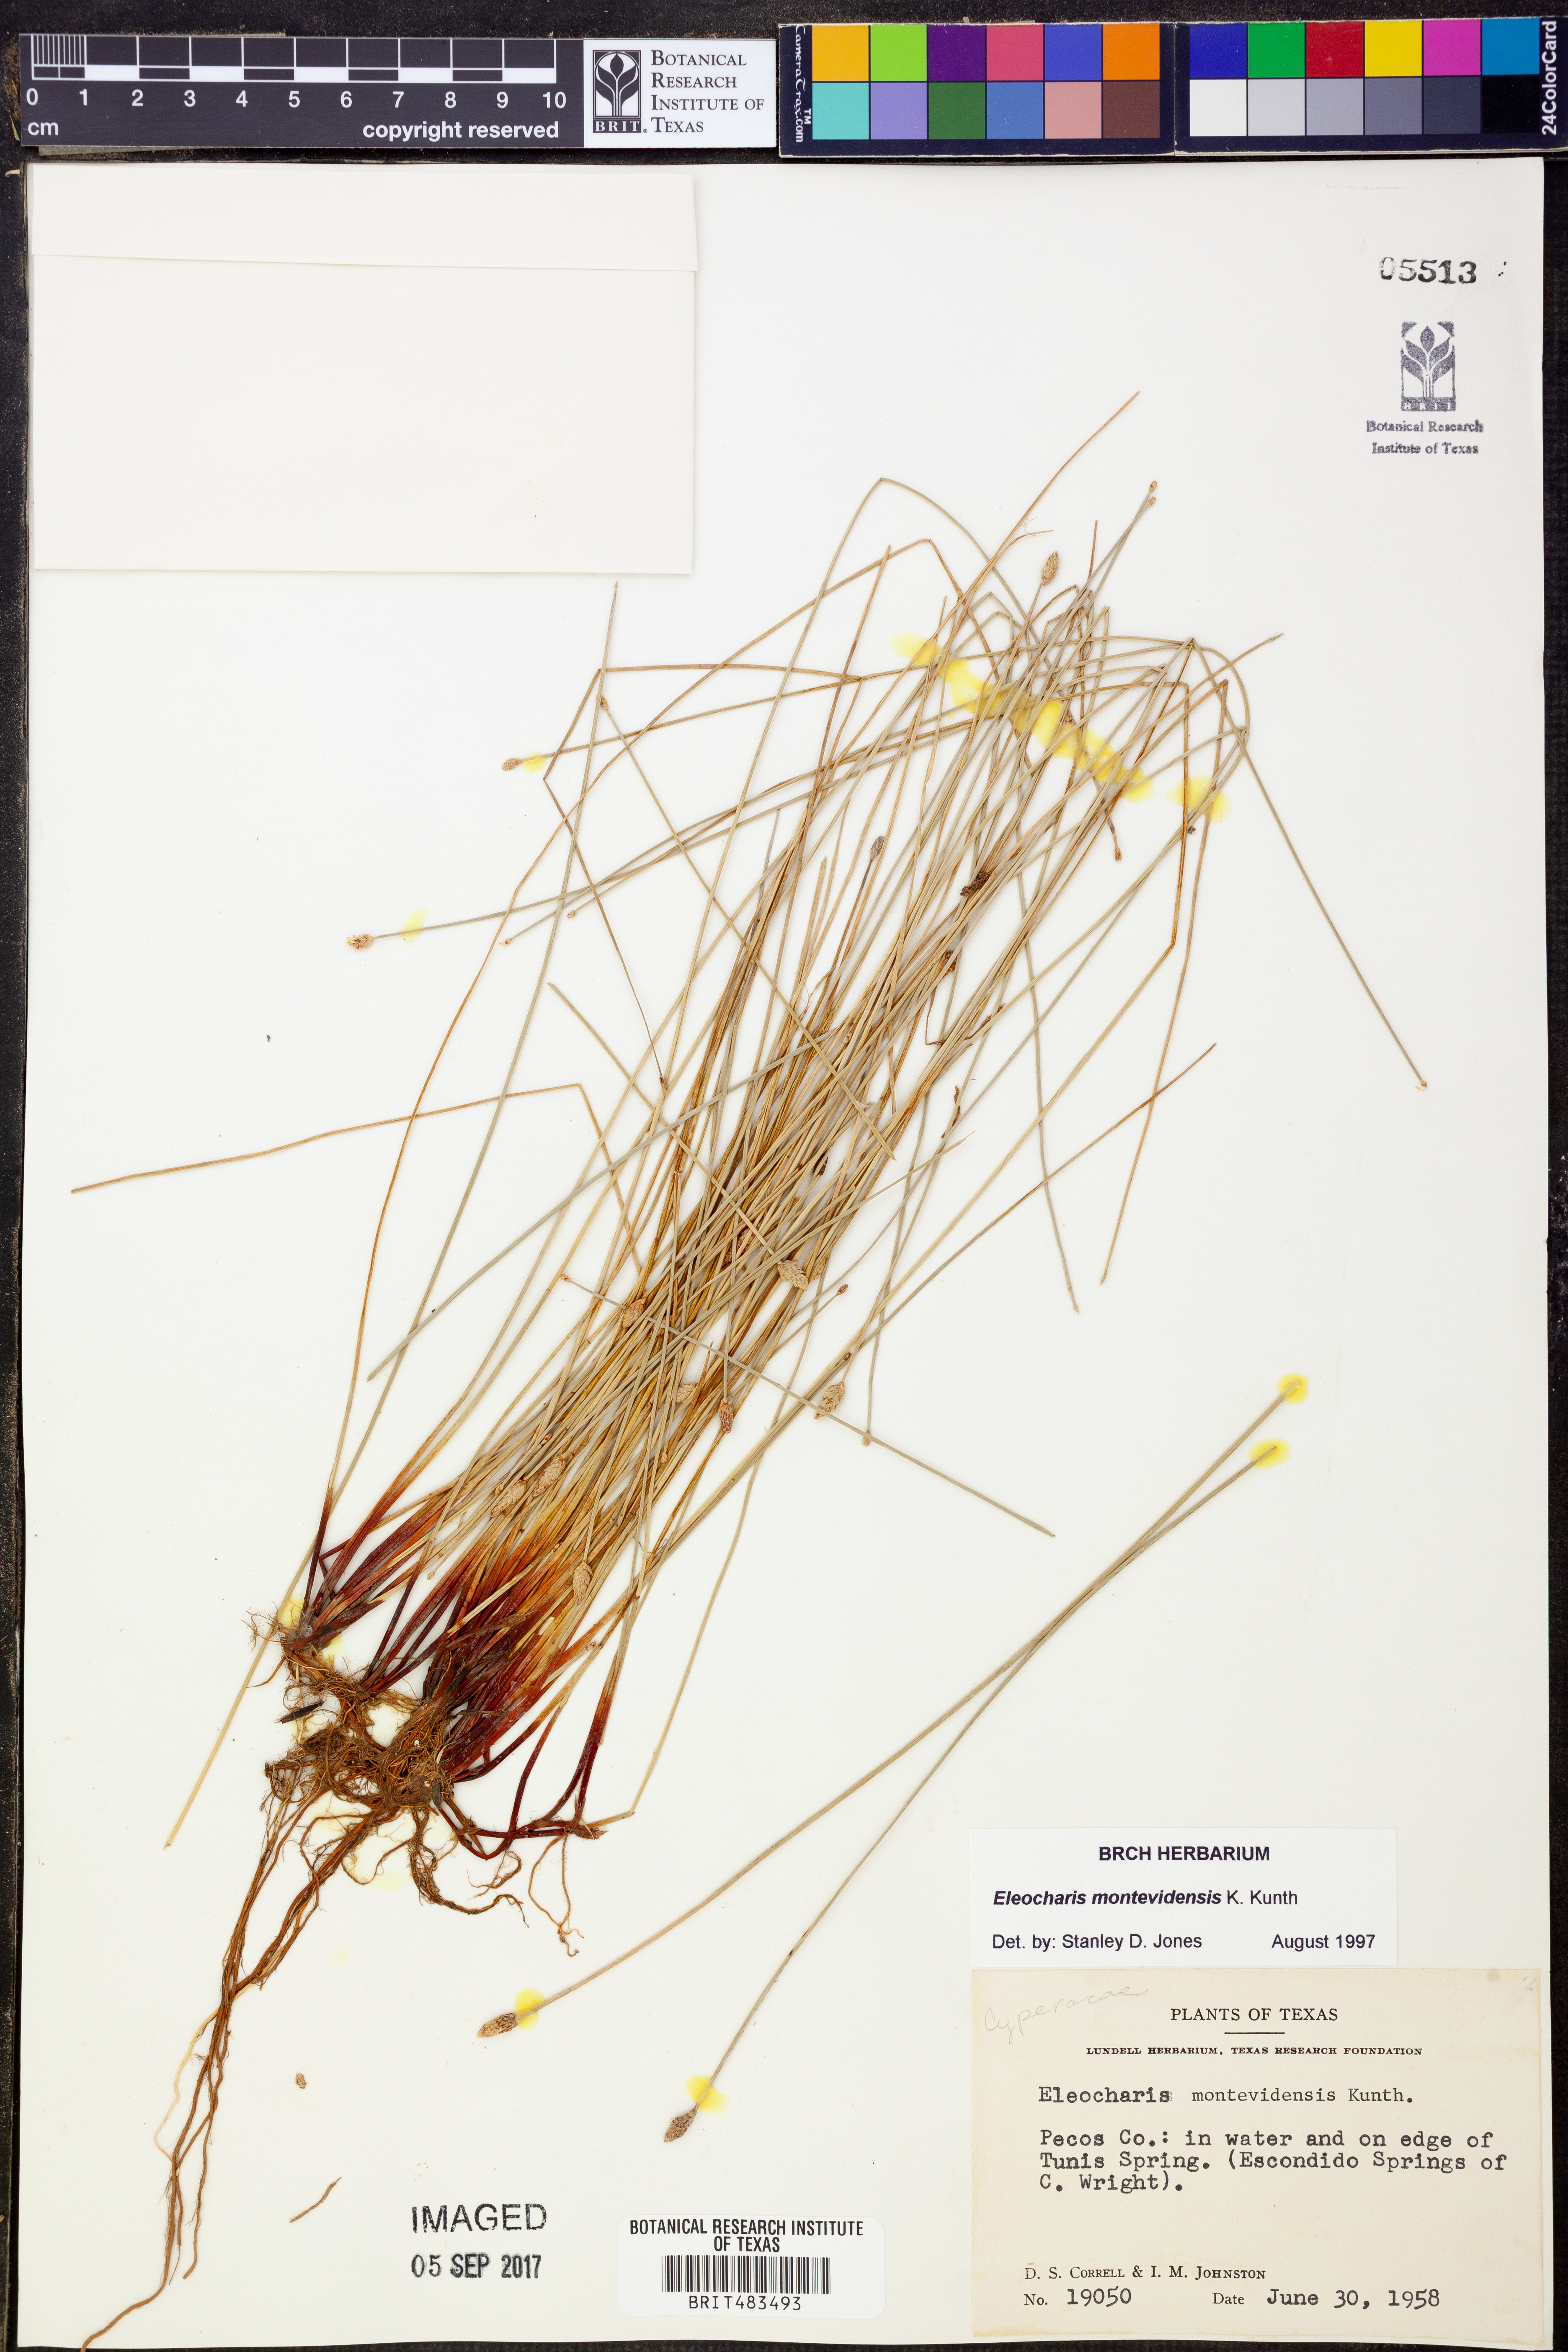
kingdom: Plantae
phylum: Tracheophyta
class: Liliopsida
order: Poales
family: Cyperaceae
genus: Eleocharis
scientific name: Eleocharis montevidensis
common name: Sand spike-rush
